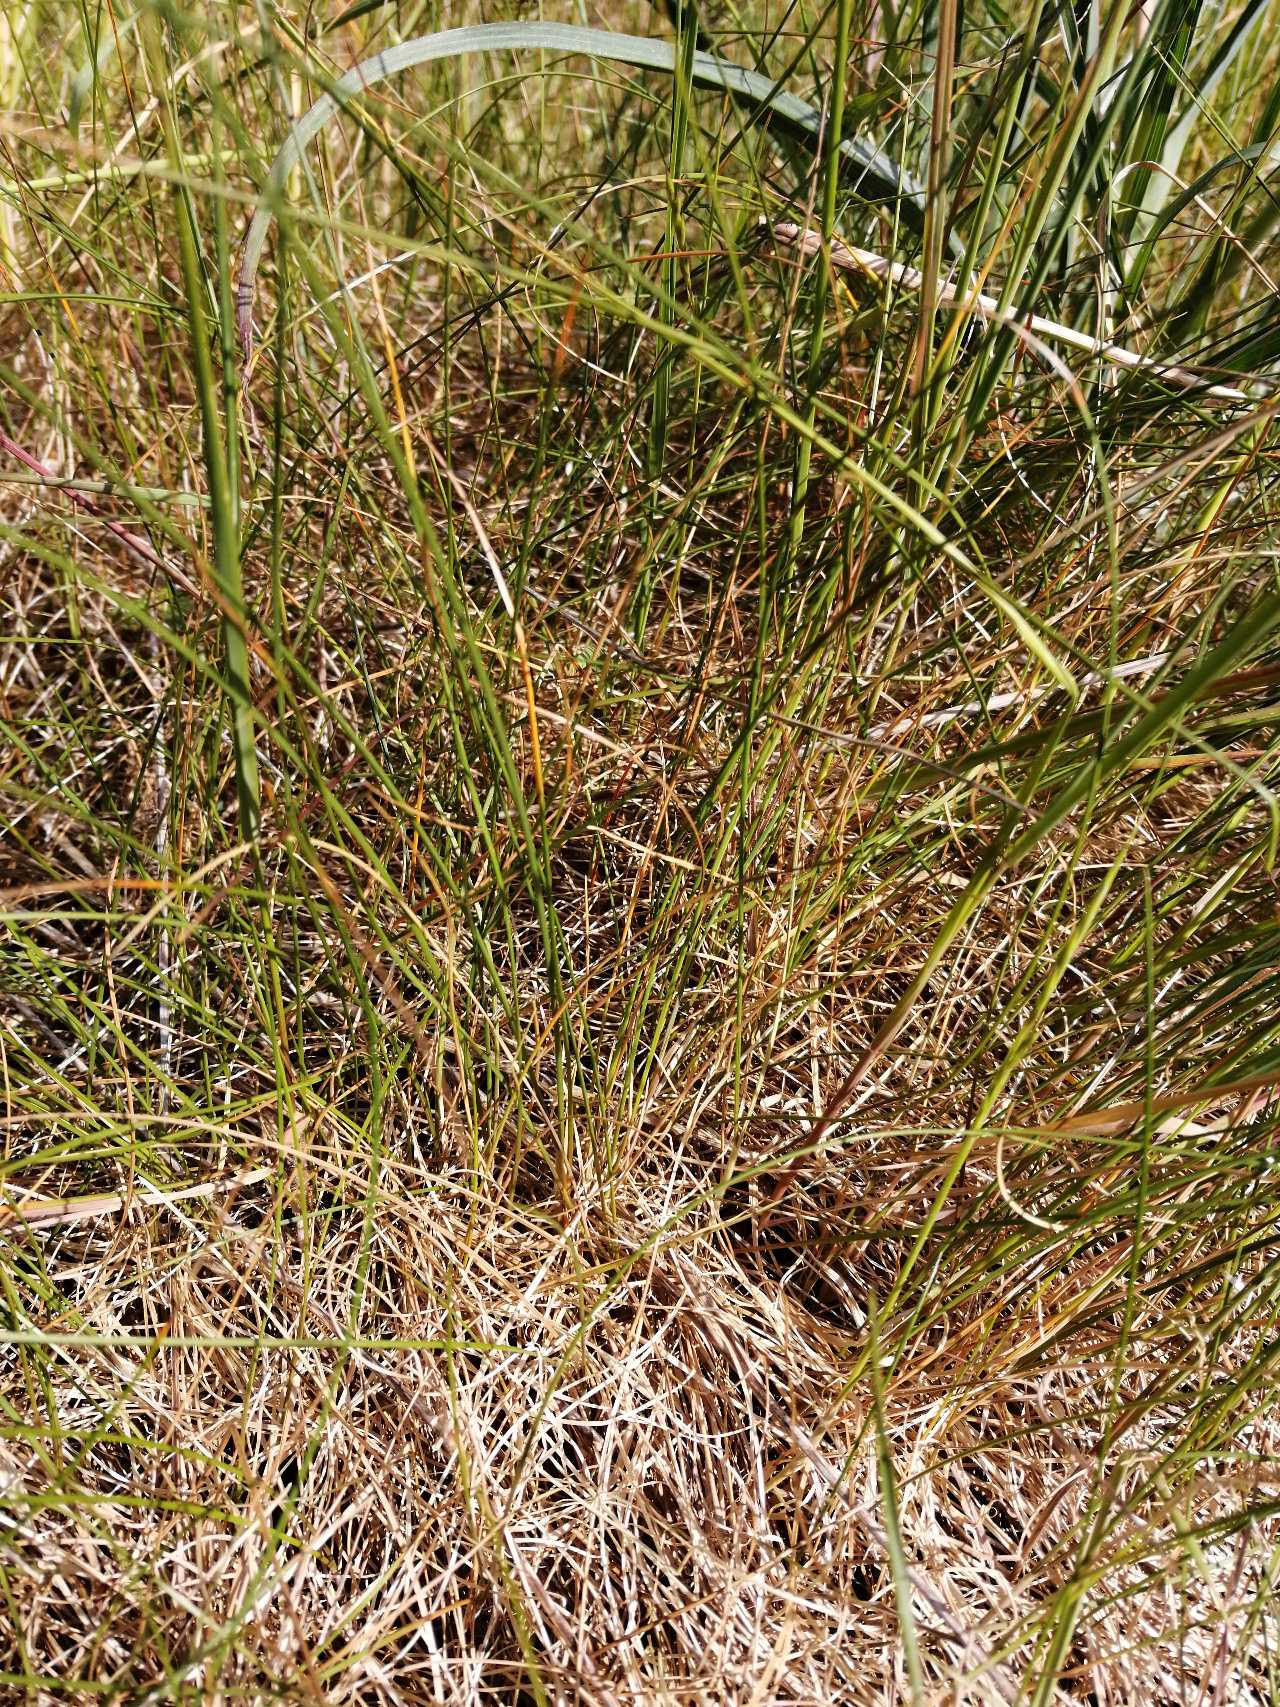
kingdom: Plantae
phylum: Tracheophyta
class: Liliopsida
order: Poales
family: Poaceae
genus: Festuca
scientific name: Festuca rubra
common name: Rød svingel
